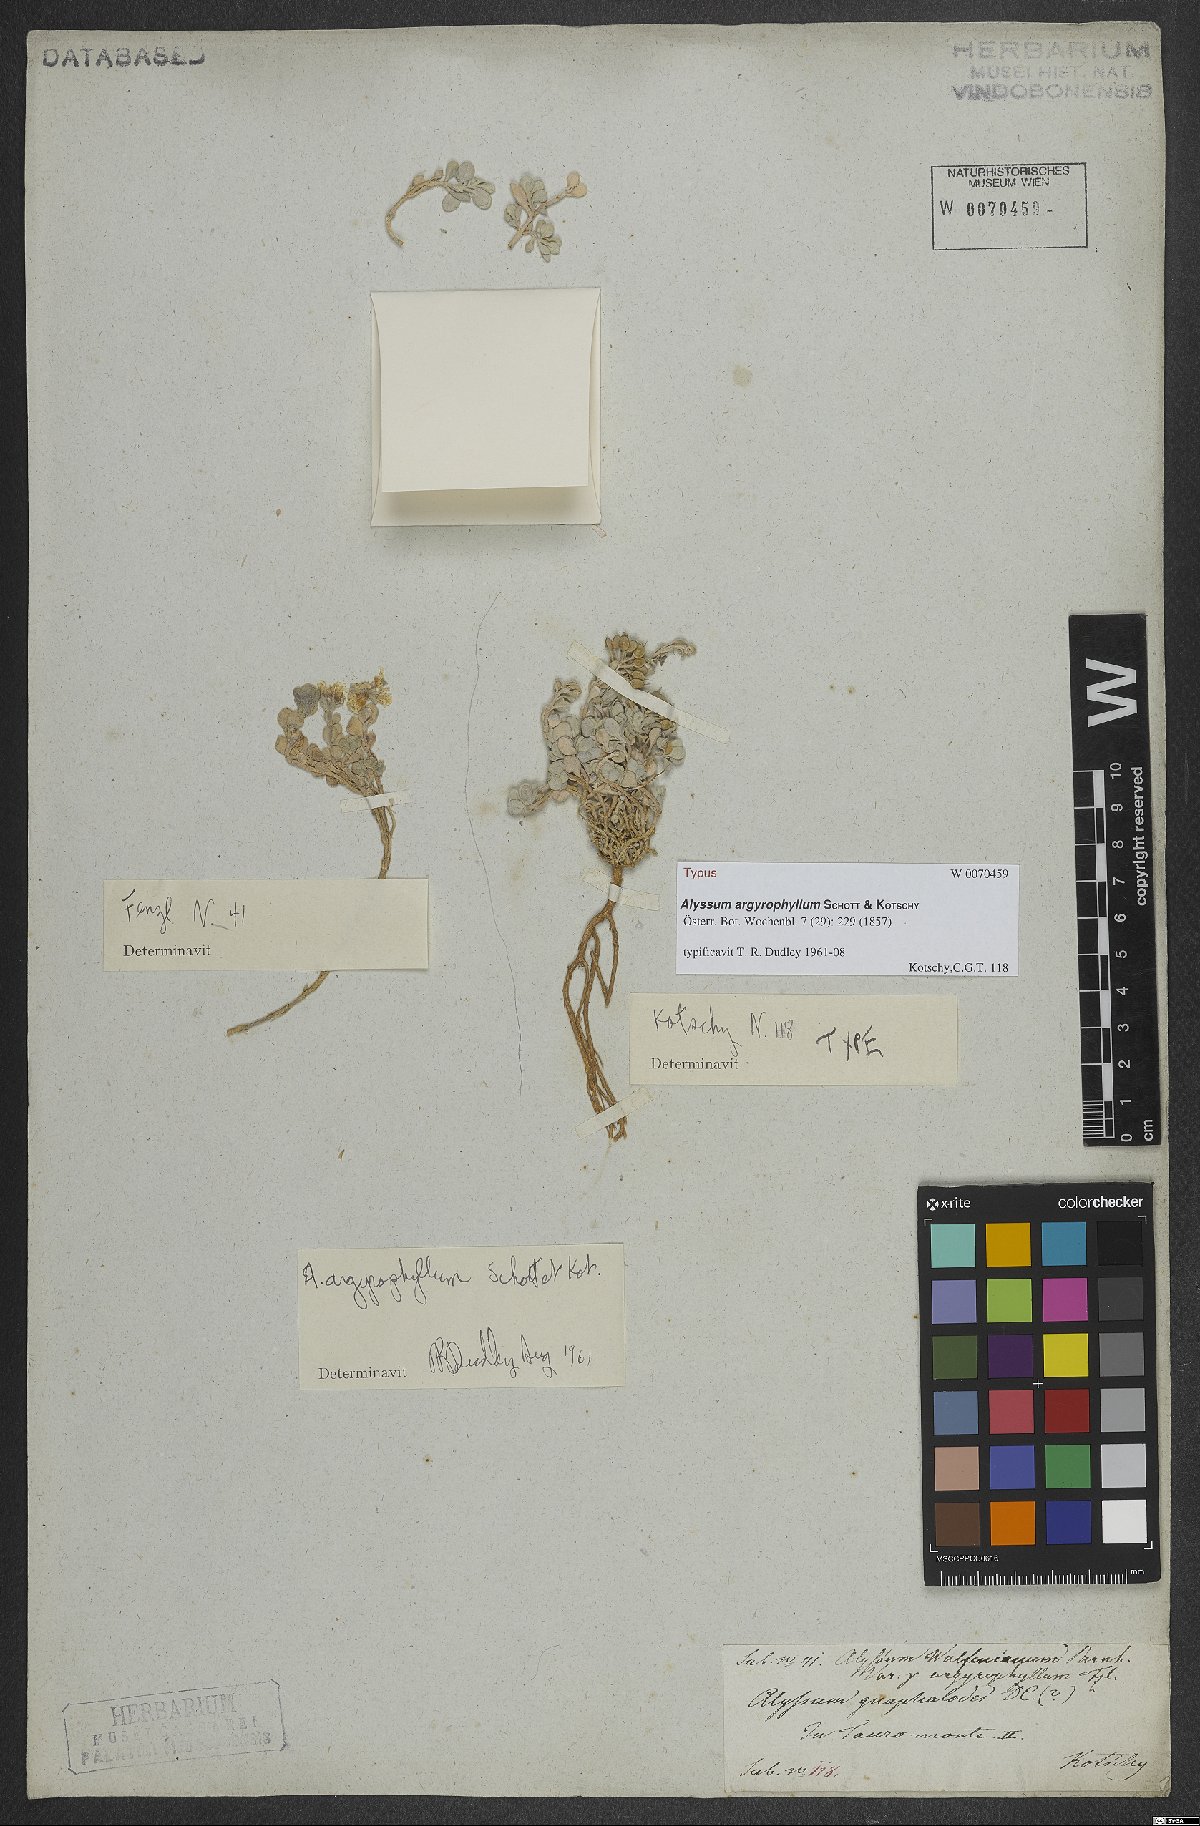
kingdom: Plantae
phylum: Tracheophyta
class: Magnoliopsida
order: Brassicales
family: Brassicaceae
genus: Alyssum
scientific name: Alyssum argyrophyllum
